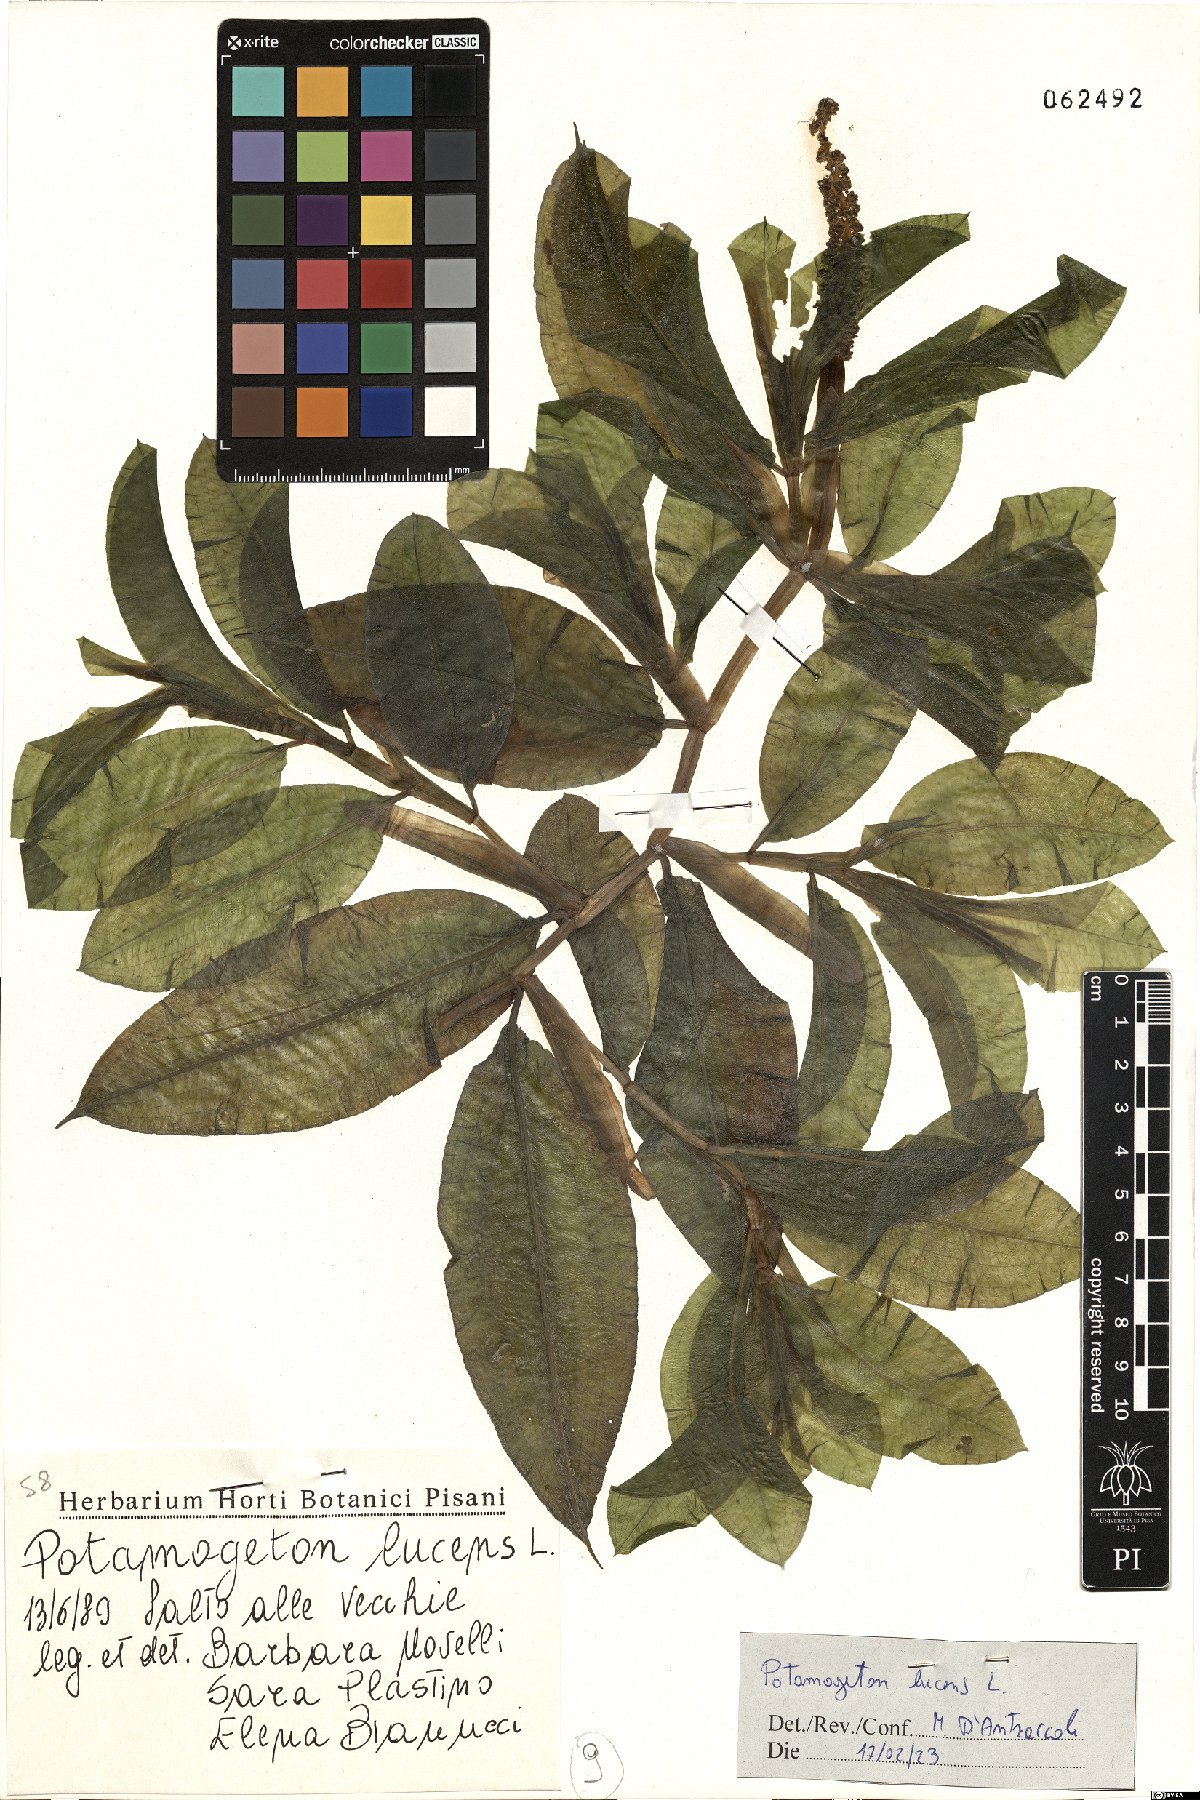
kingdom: Plantae
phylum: Tracheophyta
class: Liliopsida
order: Alismatales
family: Potamogetonaceae
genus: Potamogeton
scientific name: Potamogeton lucens
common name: Shining pondweed
